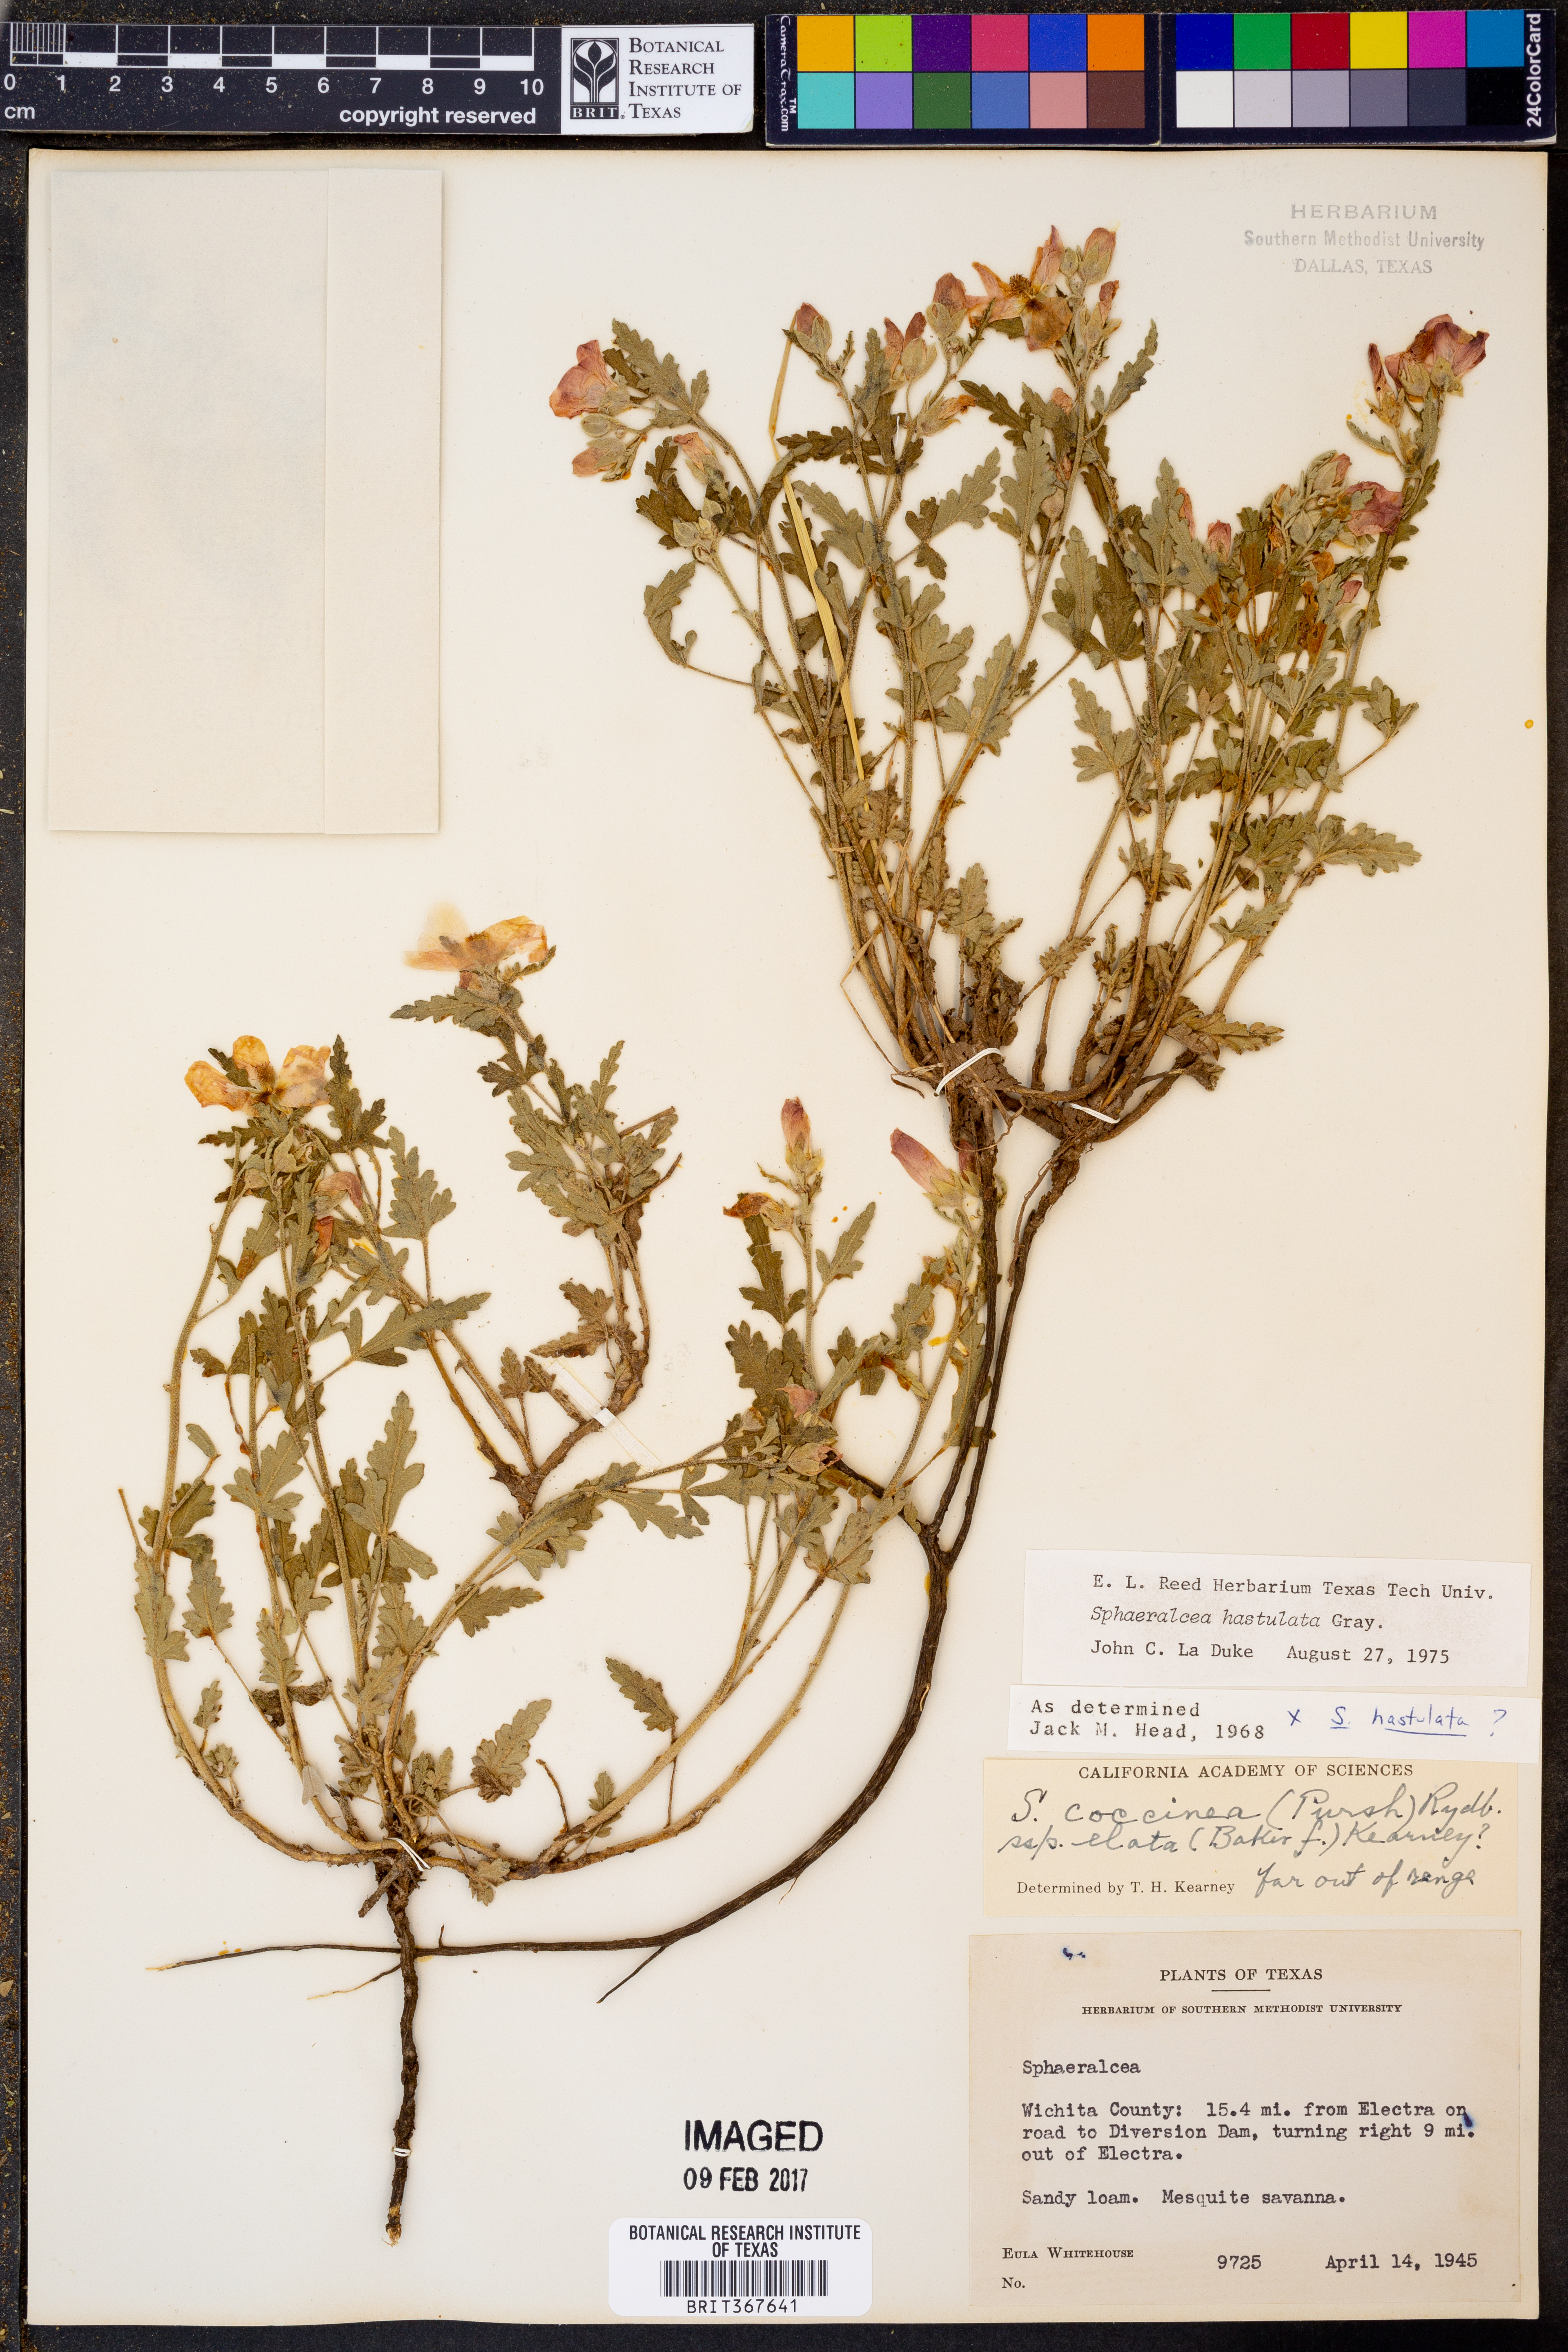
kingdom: Plantae
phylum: Tracheophyta
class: Magnoliopsida
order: Malvales
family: Malvaceae
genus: Sphaeralcea
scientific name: Sphaeralcea hastulata
